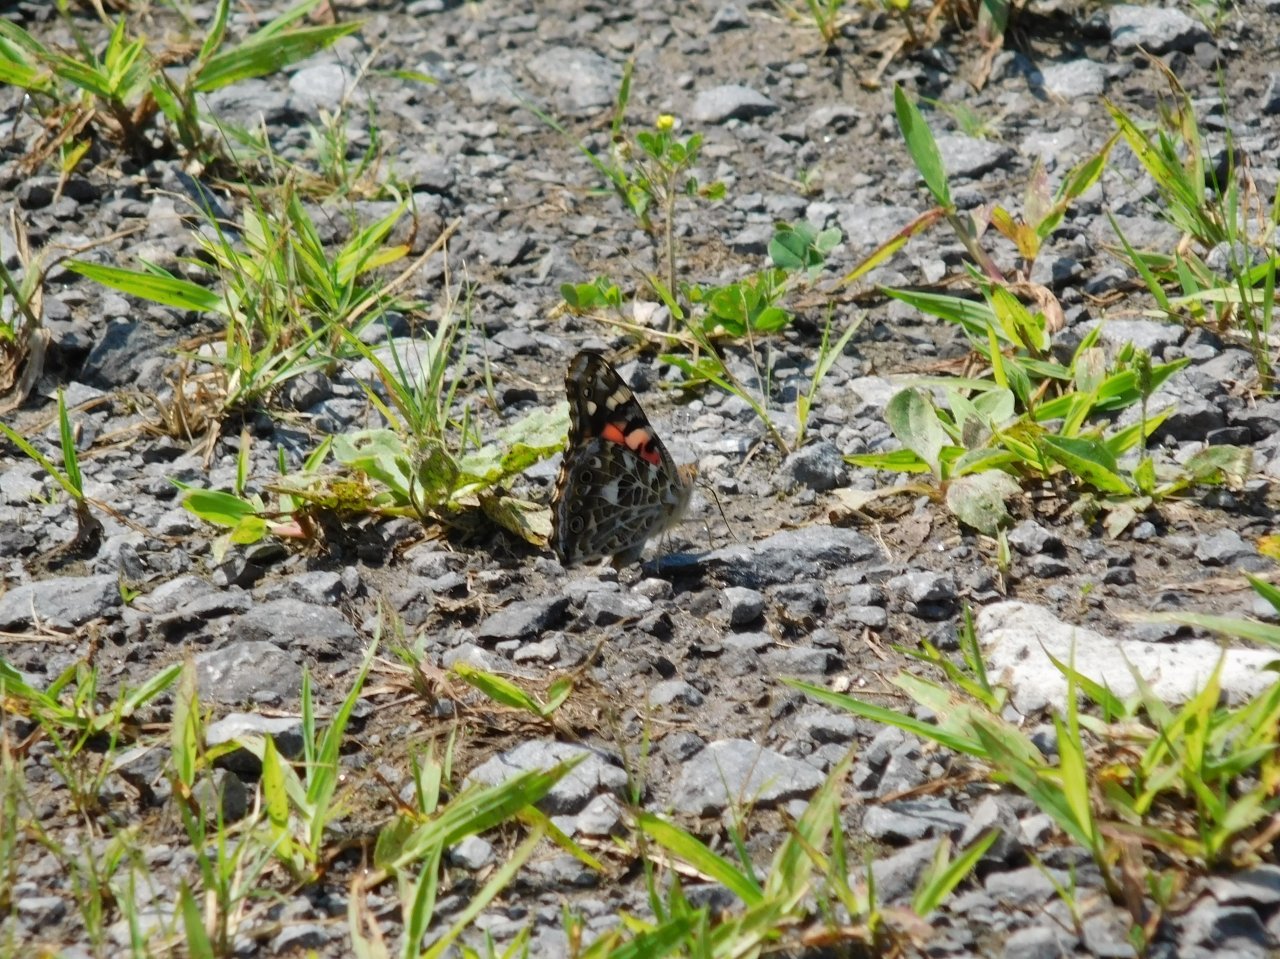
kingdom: Animalia
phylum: Arthropoda
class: Insecta
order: Lepidoptera
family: Nymphalidae
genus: Vanessa
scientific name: Vanessa cardui
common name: Painted Lady
